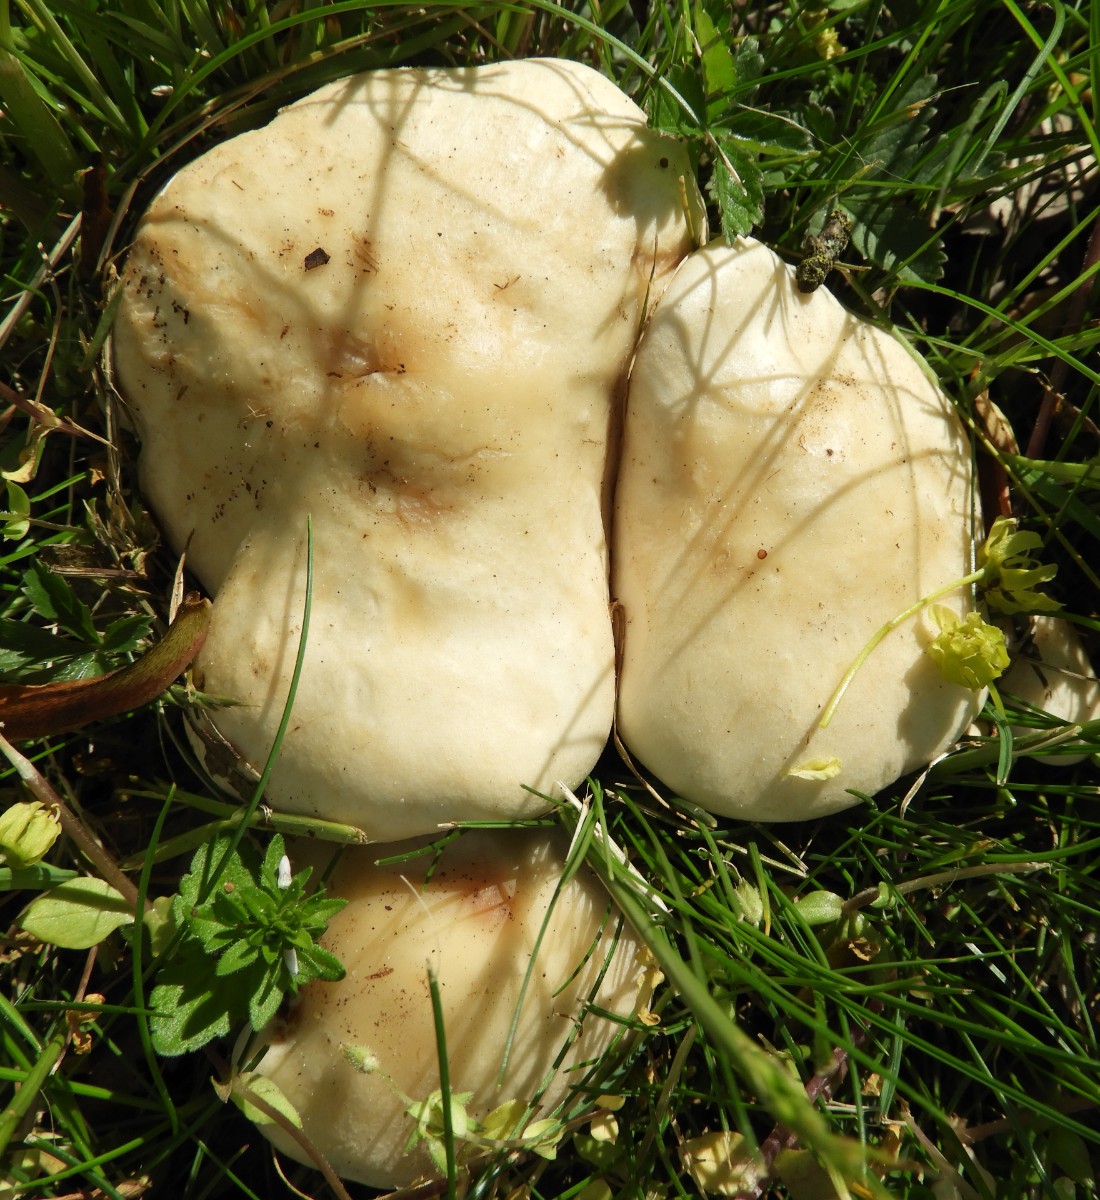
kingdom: Fungi
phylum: Basidiomycota
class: Agaricomycetes
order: Agaricales
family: Lyophyllaceae
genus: Calocybe
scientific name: Calocybe gambosa
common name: vårmusseron
